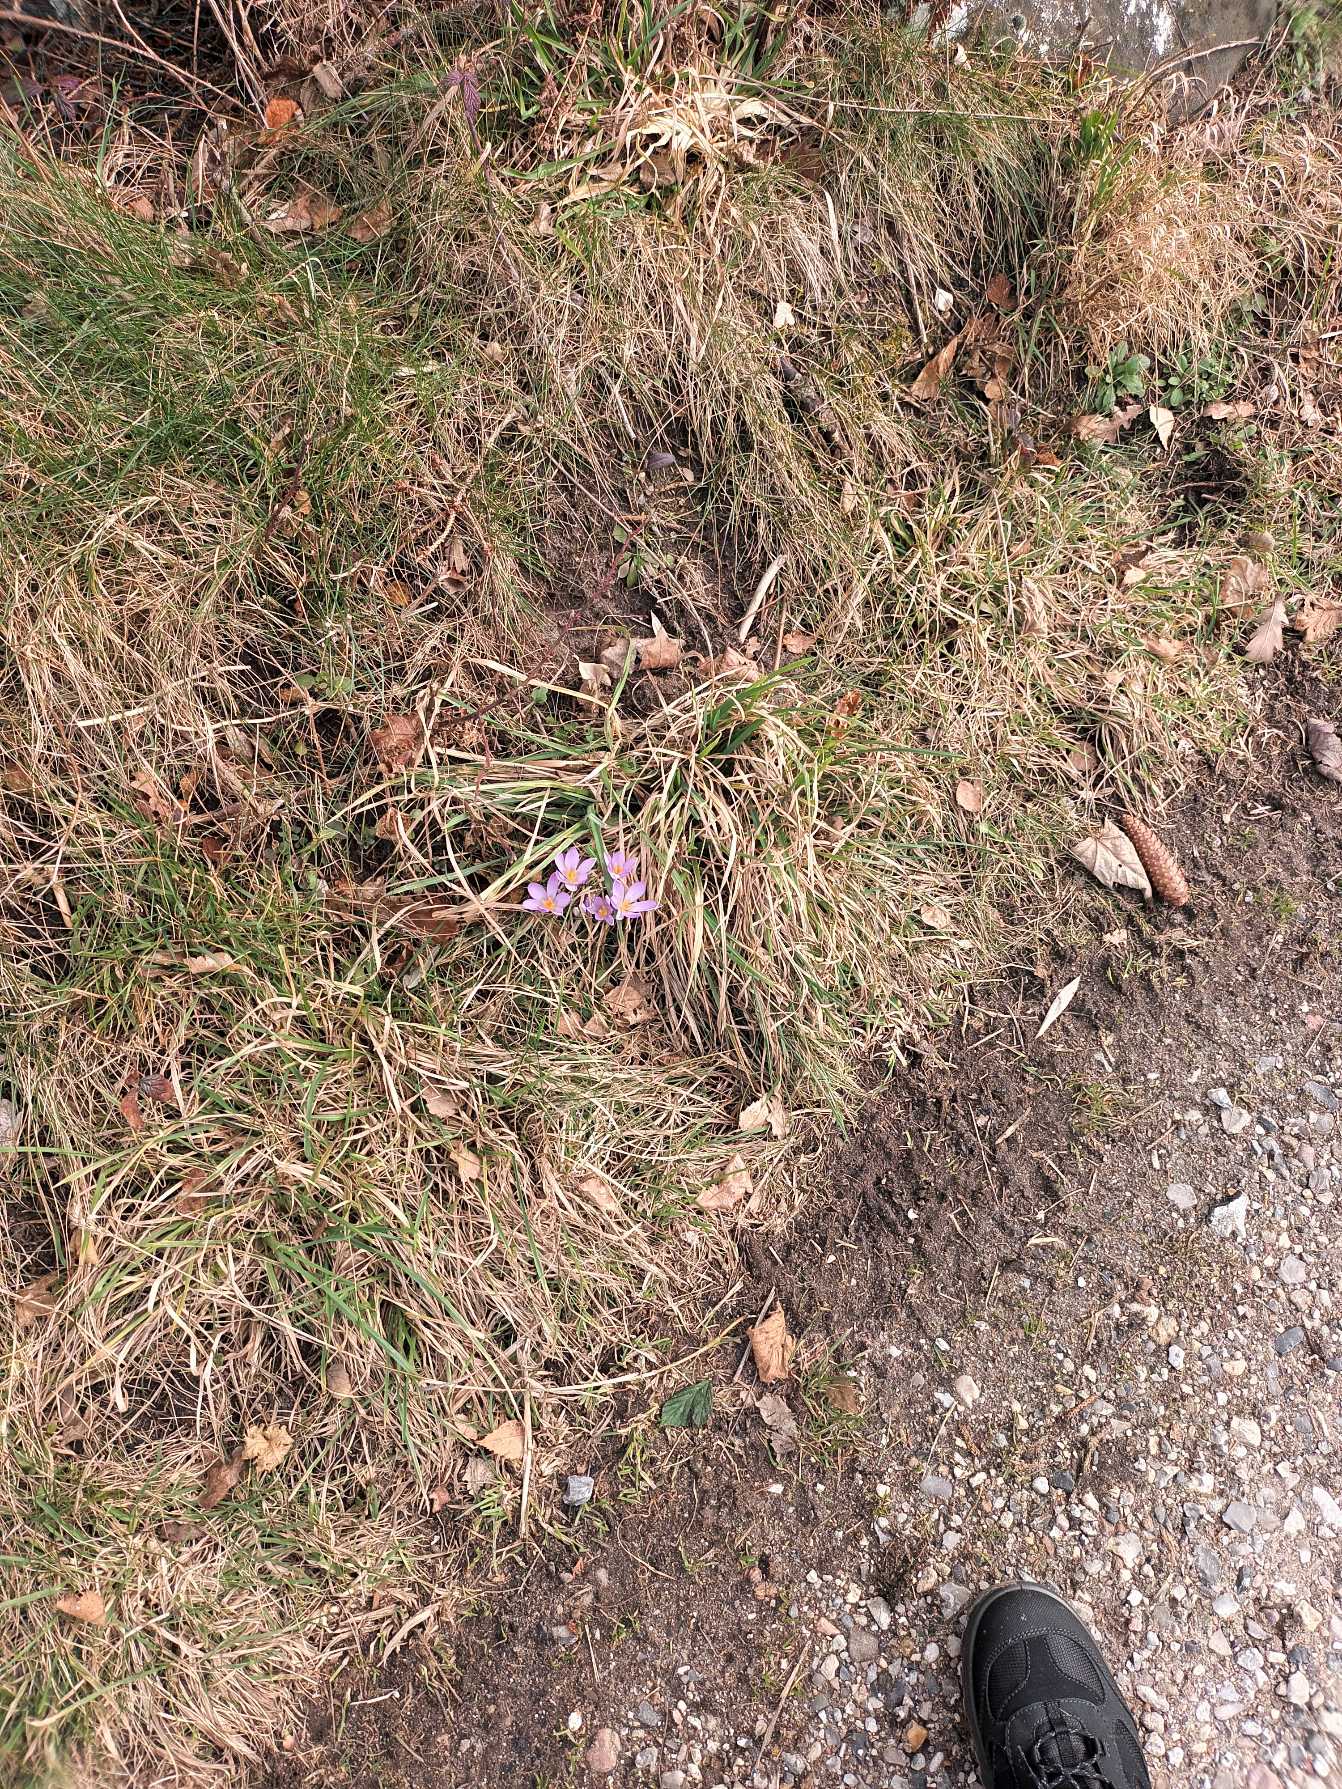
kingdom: Plantae
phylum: Tracheophyta
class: Liliopsida
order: Asparagales
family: Iridaceae
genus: Crocus
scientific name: Crocus tommasinianus
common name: Sne-krokus
